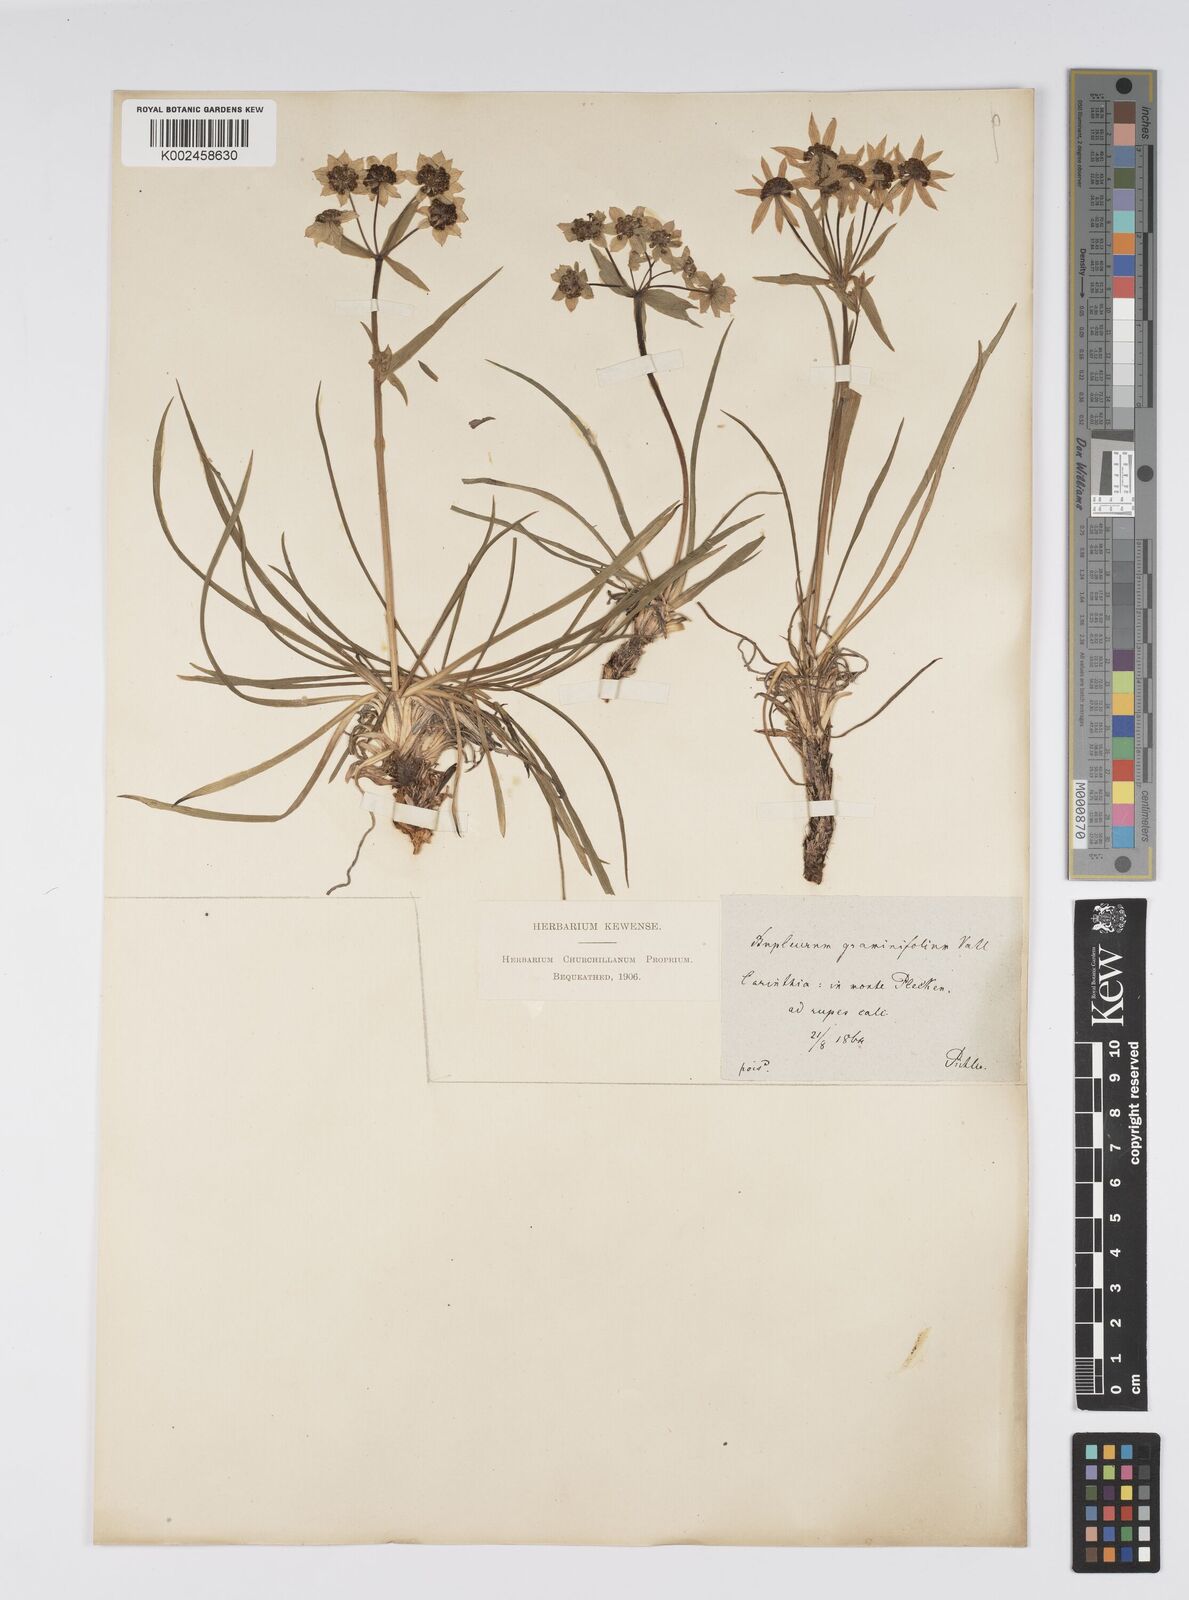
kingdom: Plantae
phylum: Tracheophyta
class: Magnoliopsida
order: Apiales
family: Apiaceae
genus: Bupleurum
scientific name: Bupleurum petraeum
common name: Rock hare's-ear
